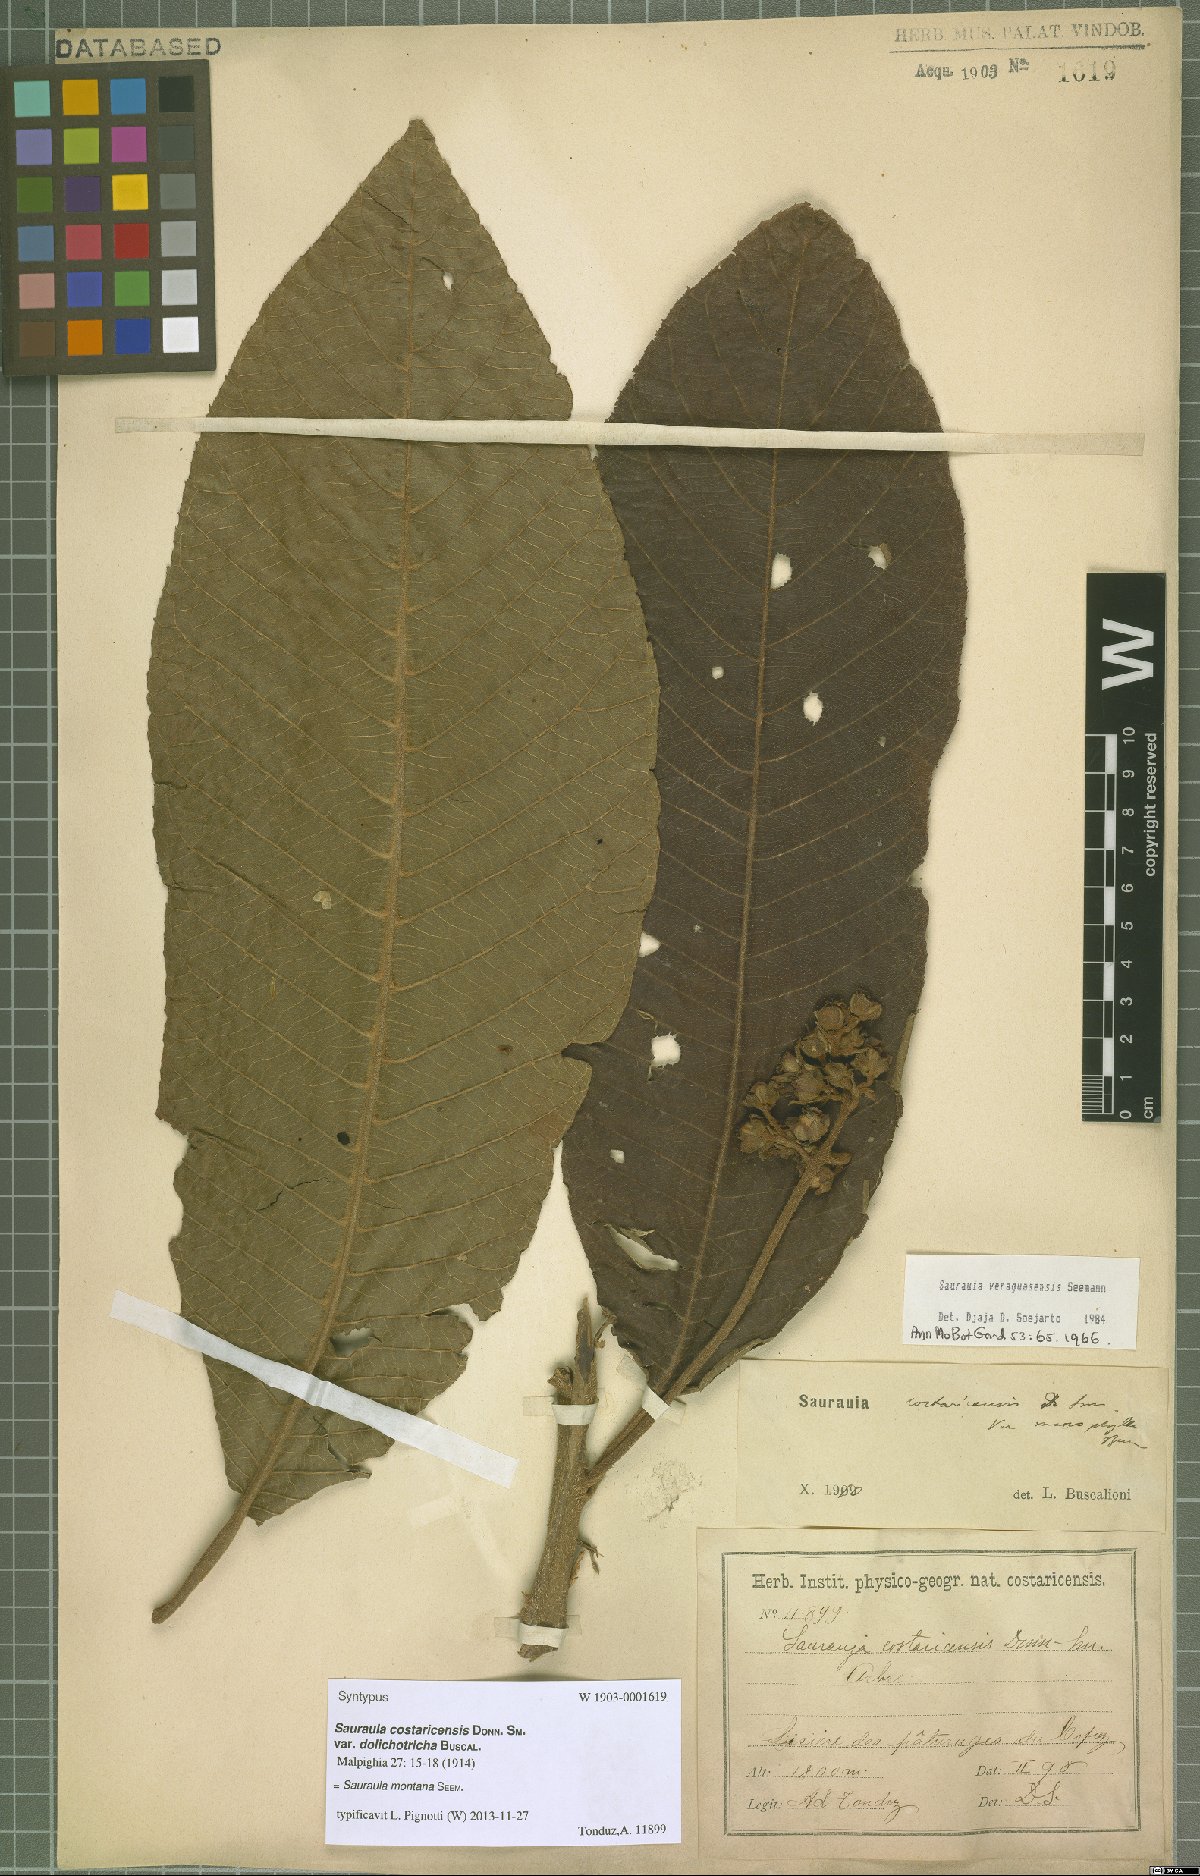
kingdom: Plantae
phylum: Tracheophyta
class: Magnoliopsida
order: Ericales
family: Actinidiaceae
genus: Saurauia
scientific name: Saurauia montana
